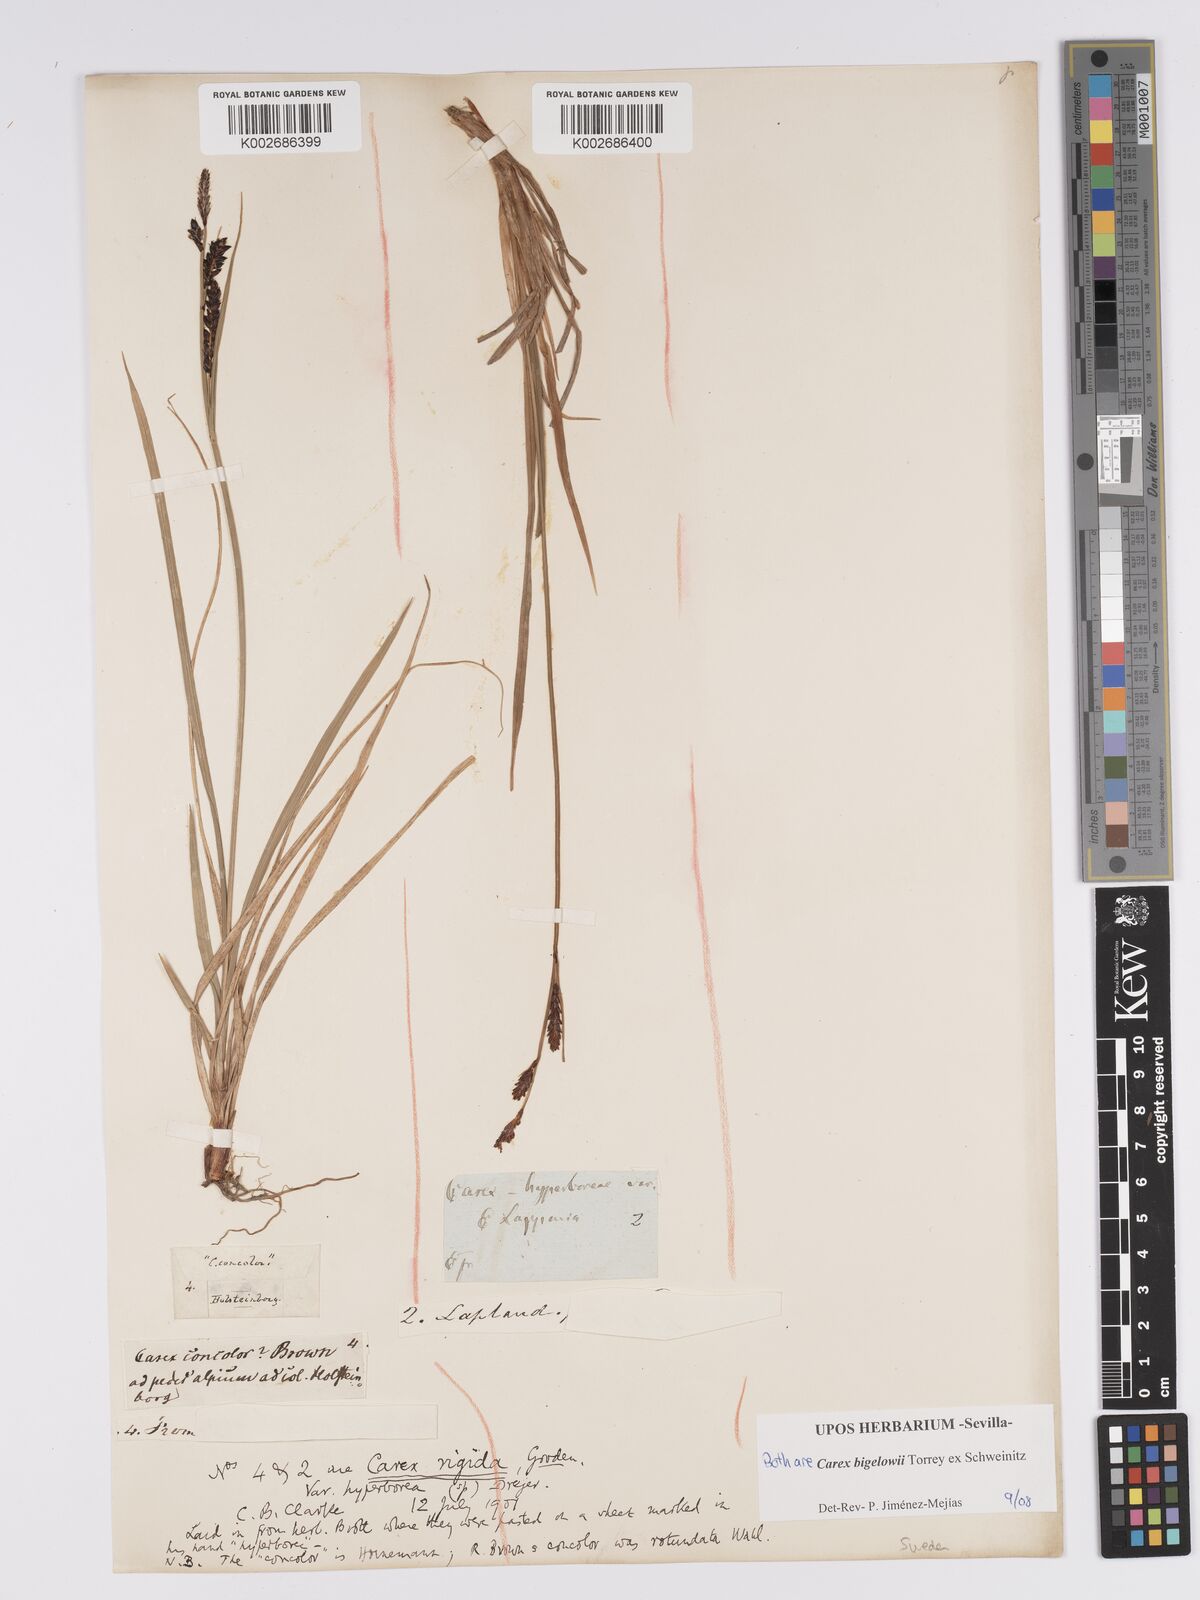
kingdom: Plantae
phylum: Tracheophyta
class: Liliopsida
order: Poales
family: Cyperaceae
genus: Carex
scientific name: Carex bigelowii
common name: Stiff sedge
